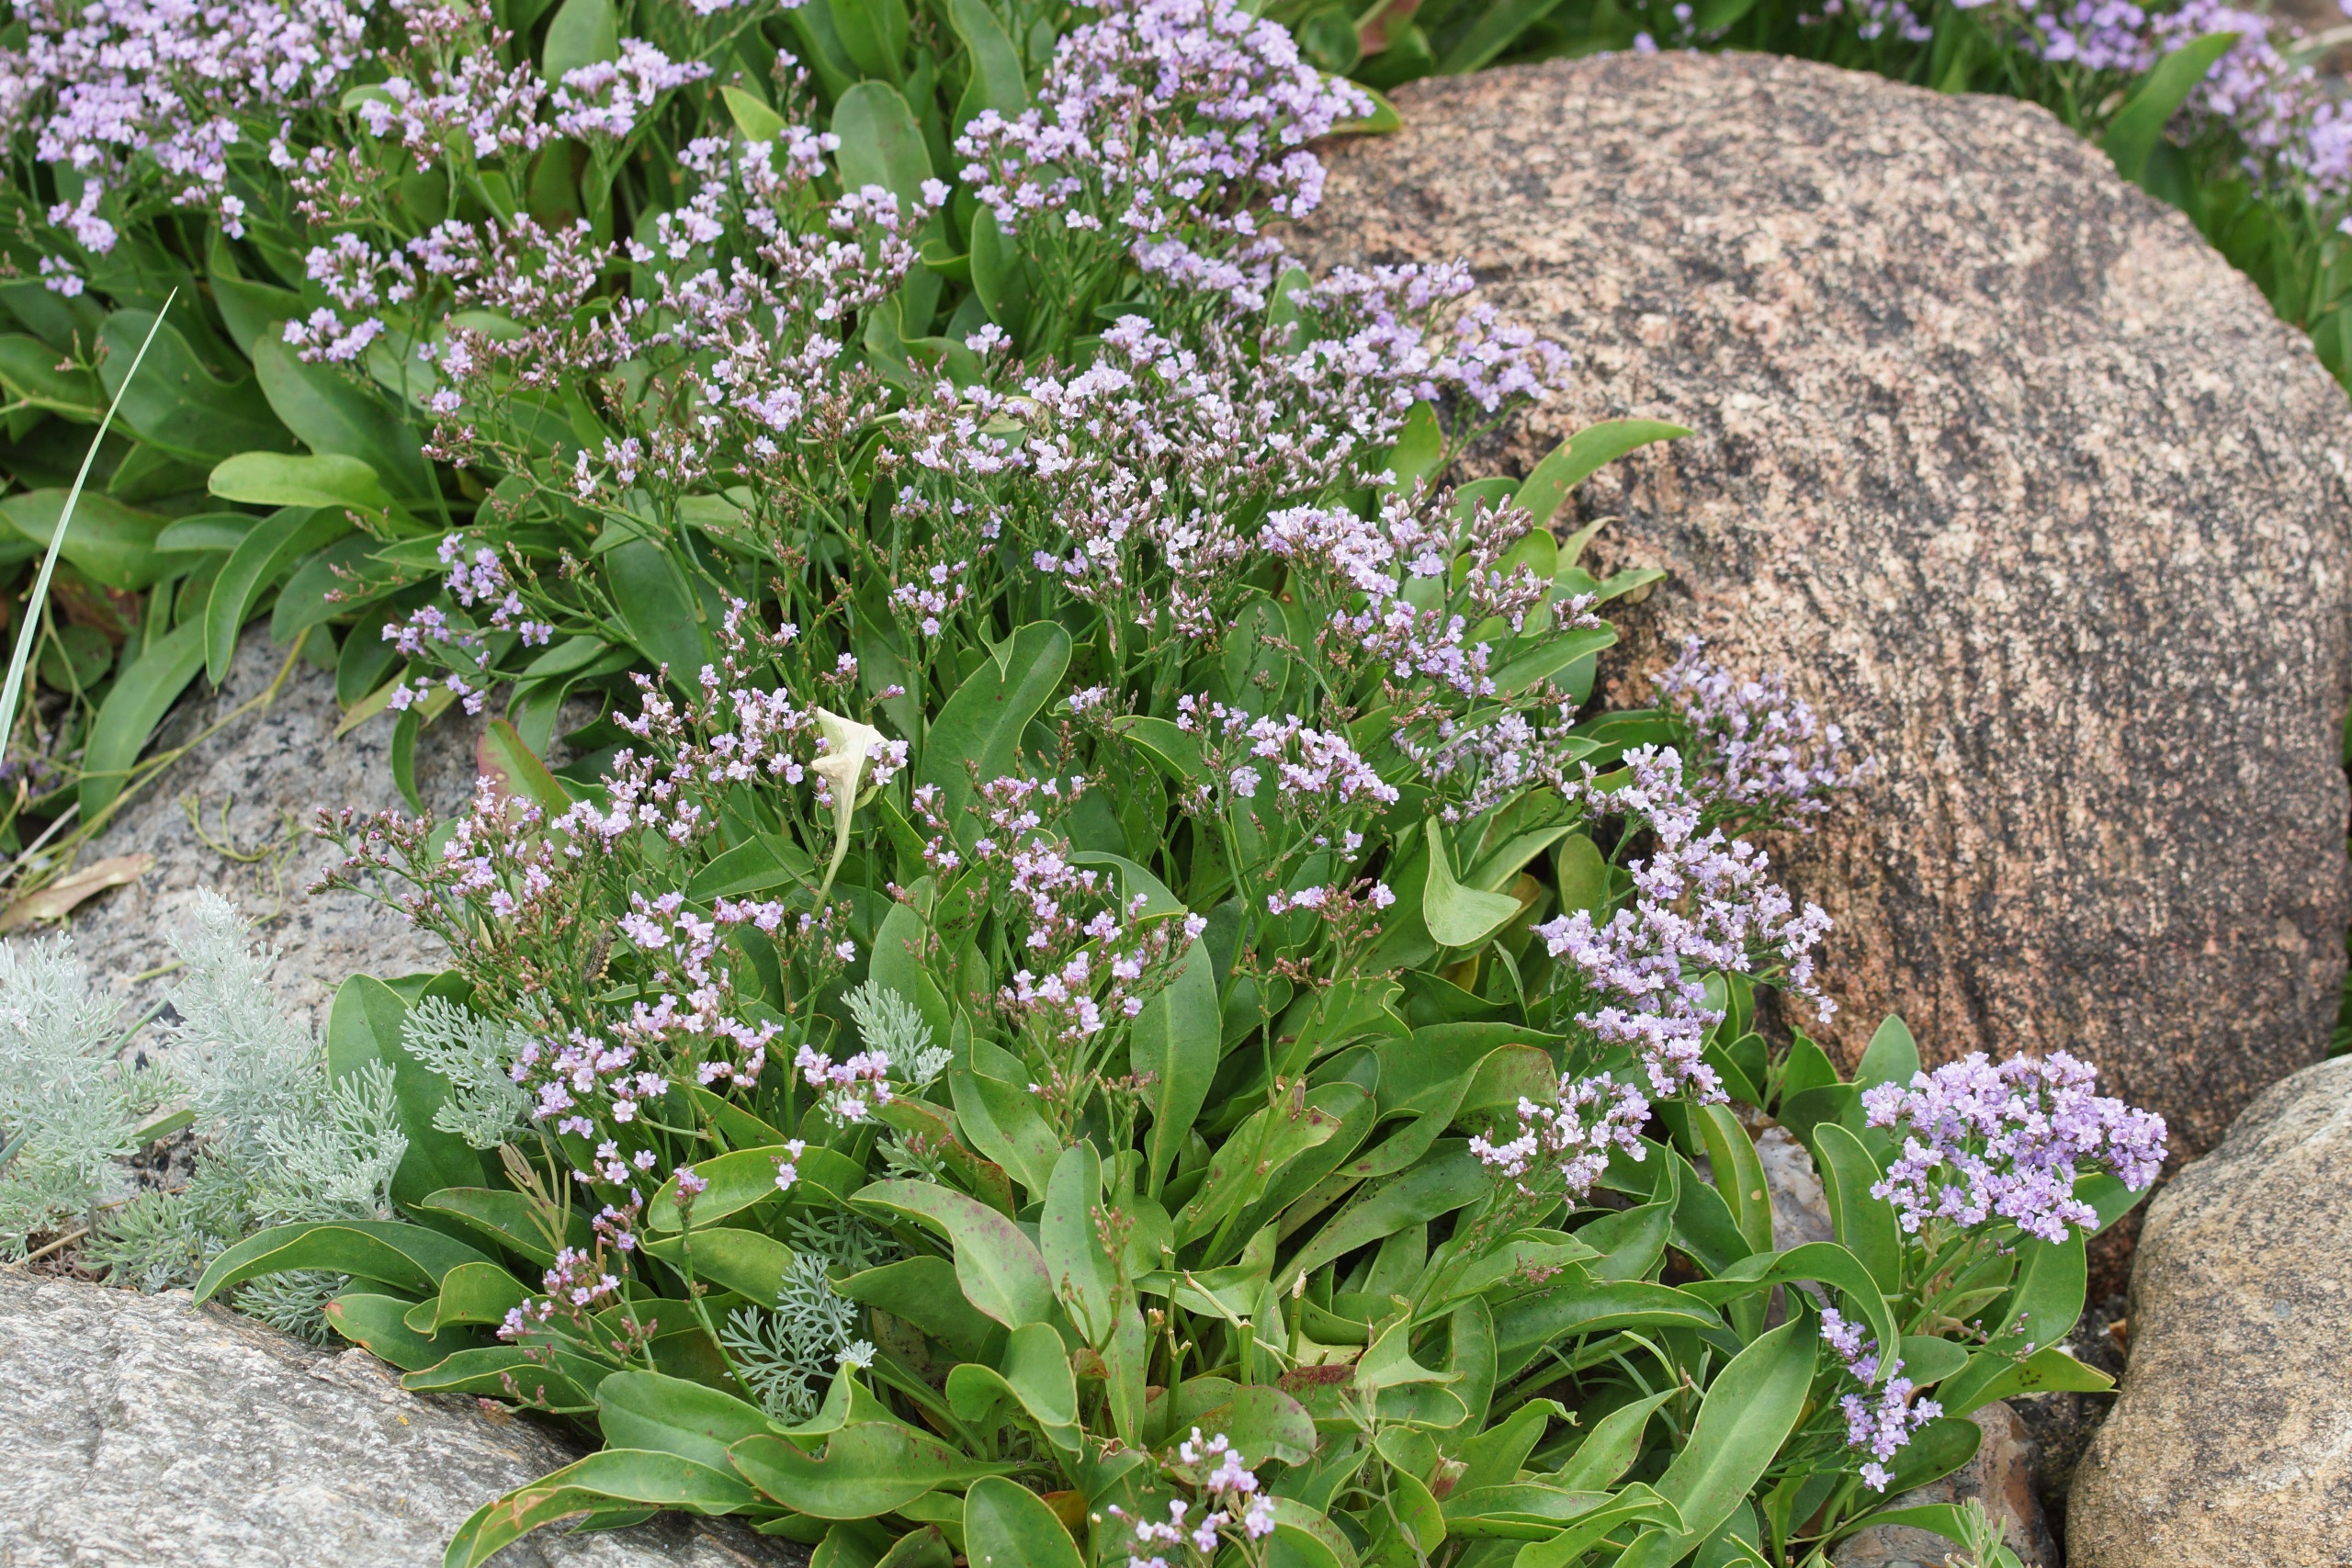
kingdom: Plantae
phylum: Tracheophyta
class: Magnoliopsida
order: Caryophyllales
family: Plumbaginaceae
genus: Limonium
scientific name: Limonium vulgare
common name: Tætblomstret hindebæger
